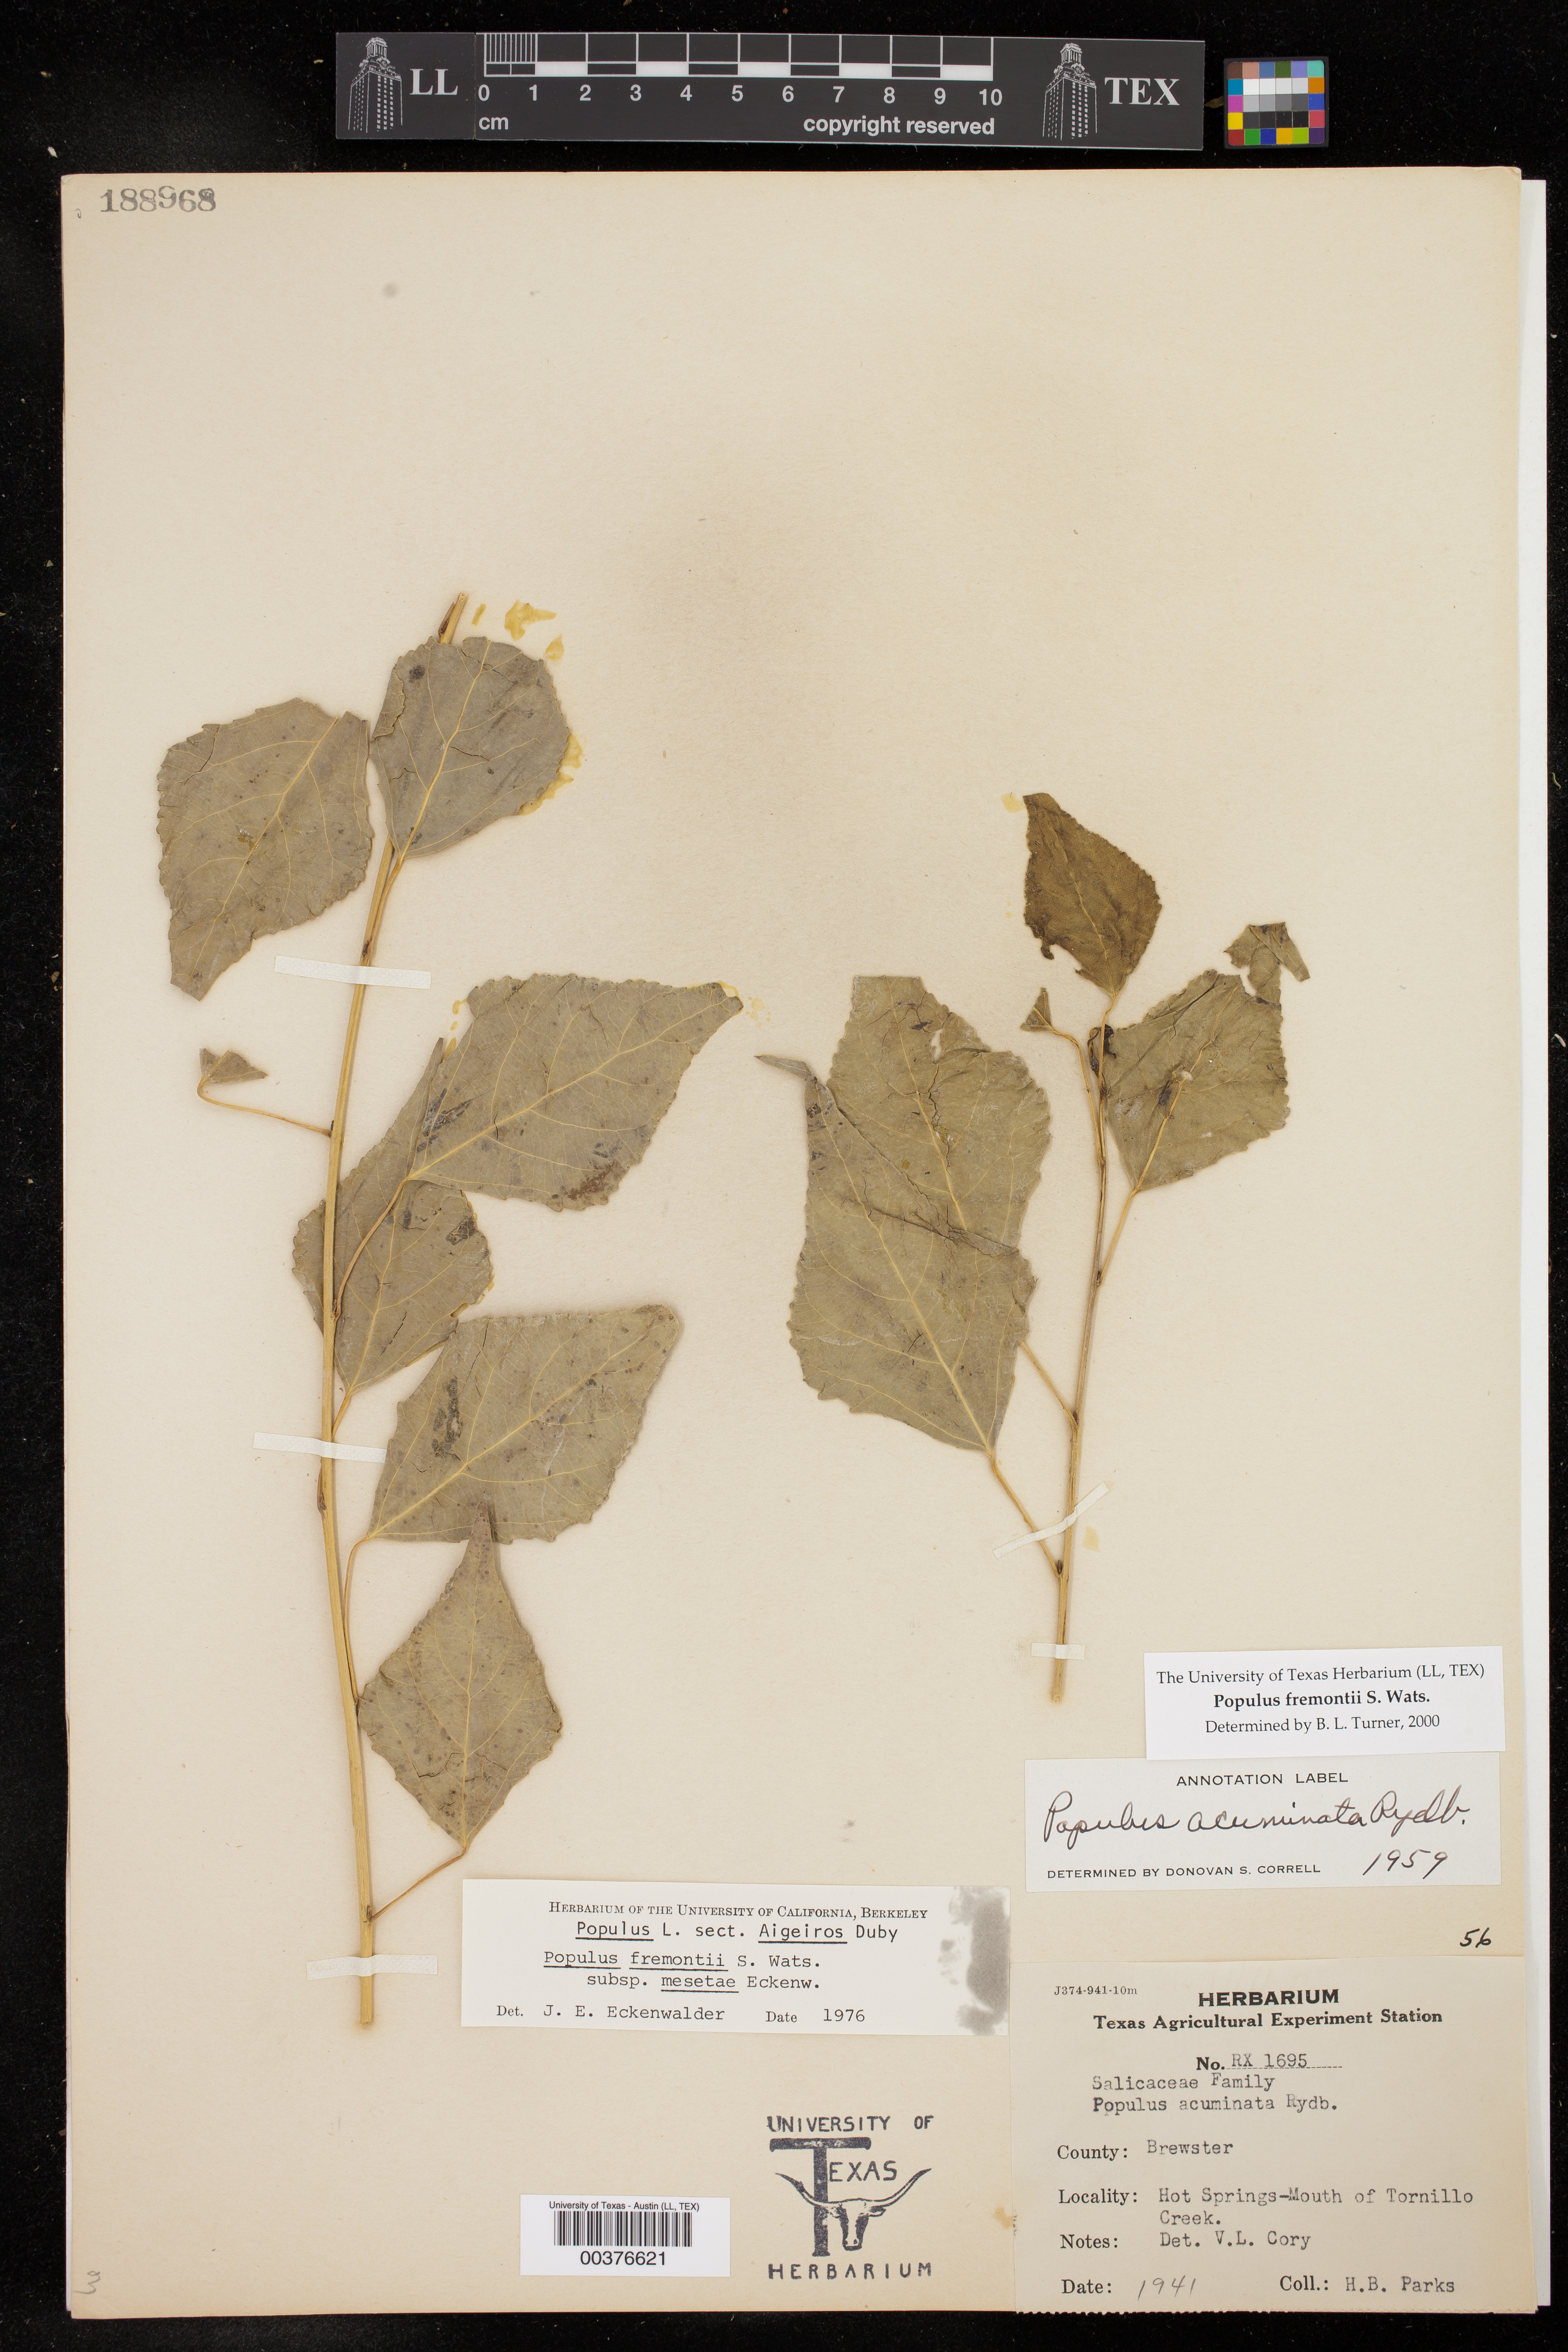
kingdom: Plantae
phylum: Tracheophyta
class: Magnoliopsida
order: Malpighiales
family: Salicaceae
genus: Populus
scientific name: Populus fremontii
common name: Fremont's cottonwood
